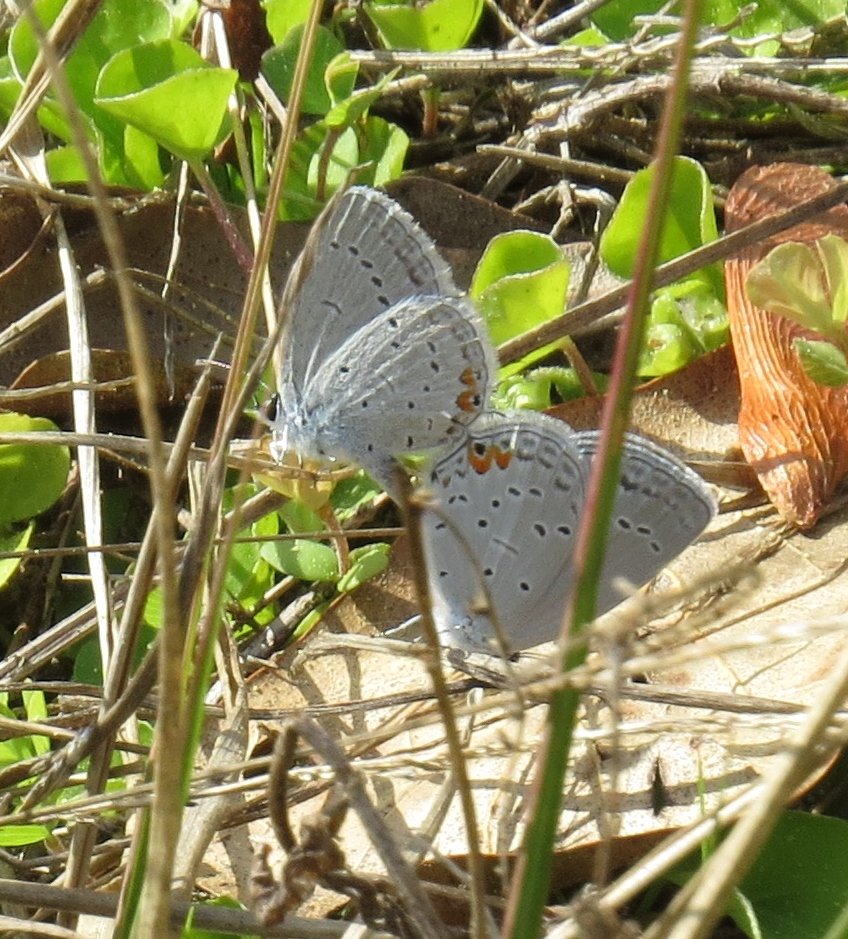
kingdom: Animalia
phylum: Arthropoda
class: Insecta
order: Lepidoptera
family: Lycaenidae
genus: Elkalyce
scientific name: Elkalyce comyntas
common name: Eastern Tailed-Blue
